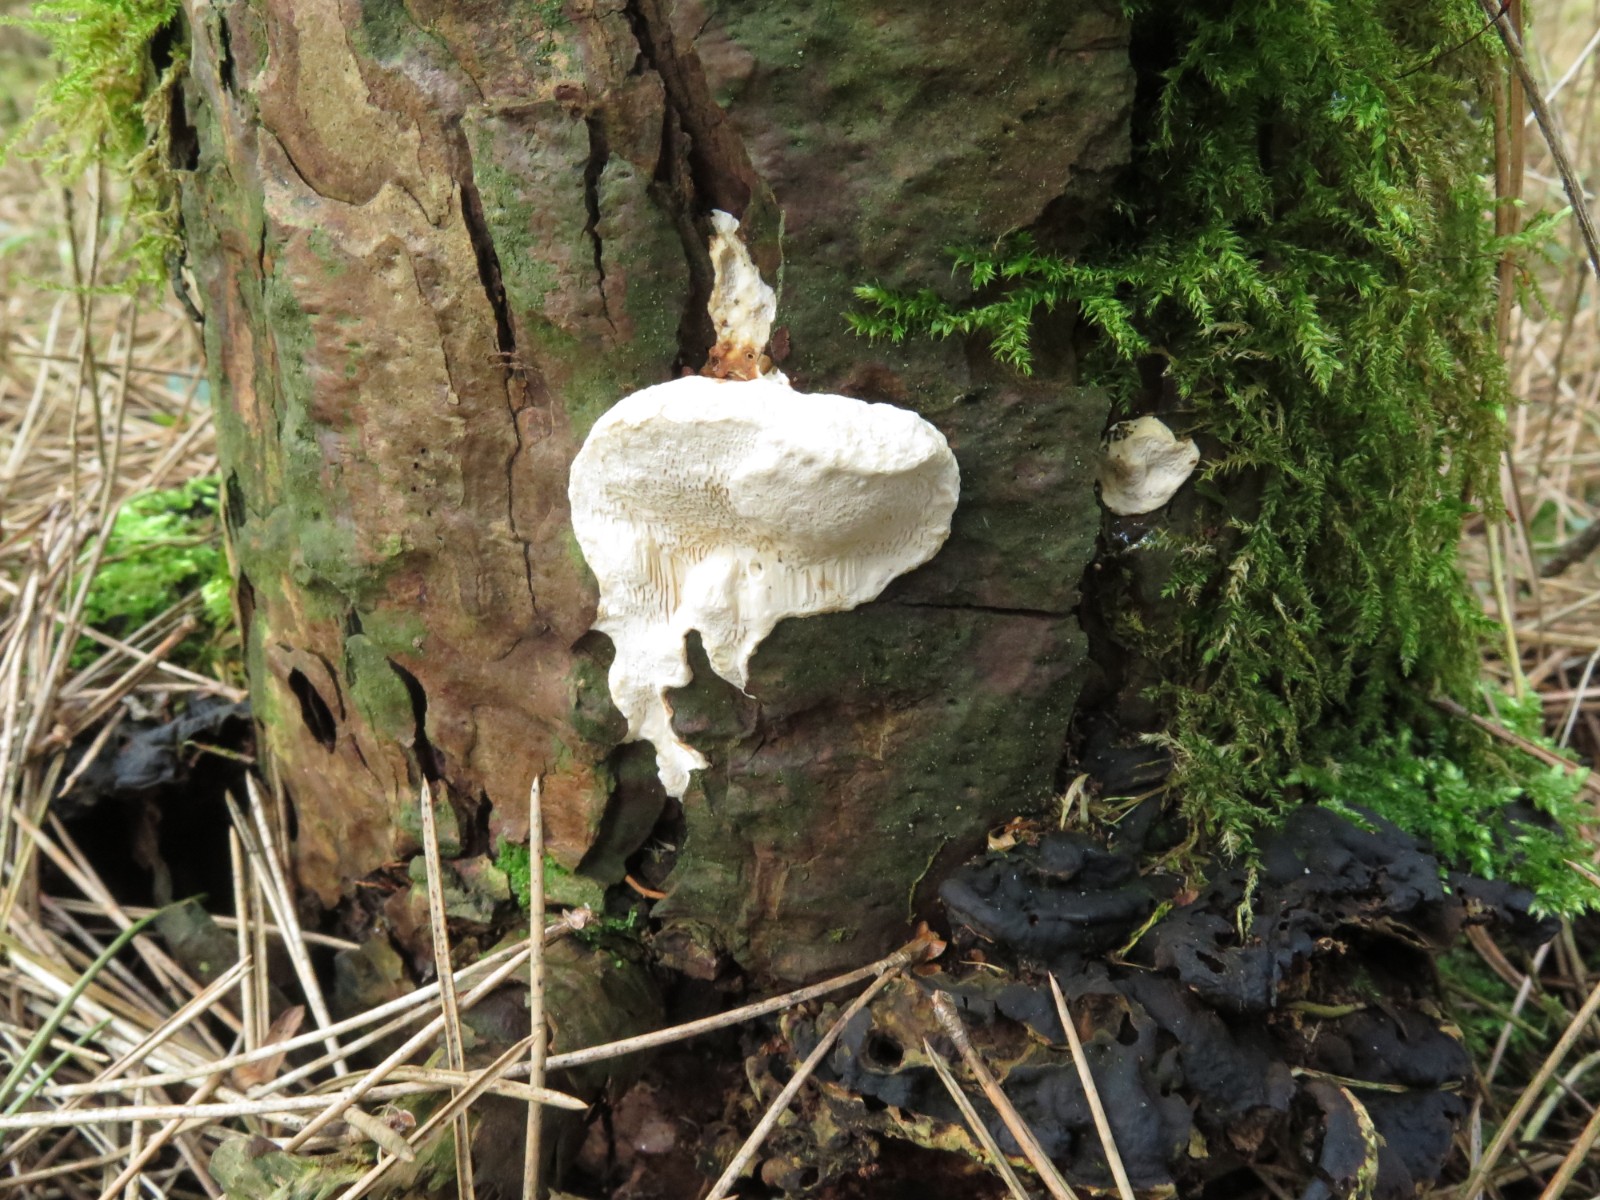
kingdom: Fungi
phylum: Basidiomycota
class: Agaricomycetes
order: Russulales
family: Bondarzewiaceae
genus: Heterobasidion
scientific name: Heterobasidion annosum
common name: almindelig rodfordærver
